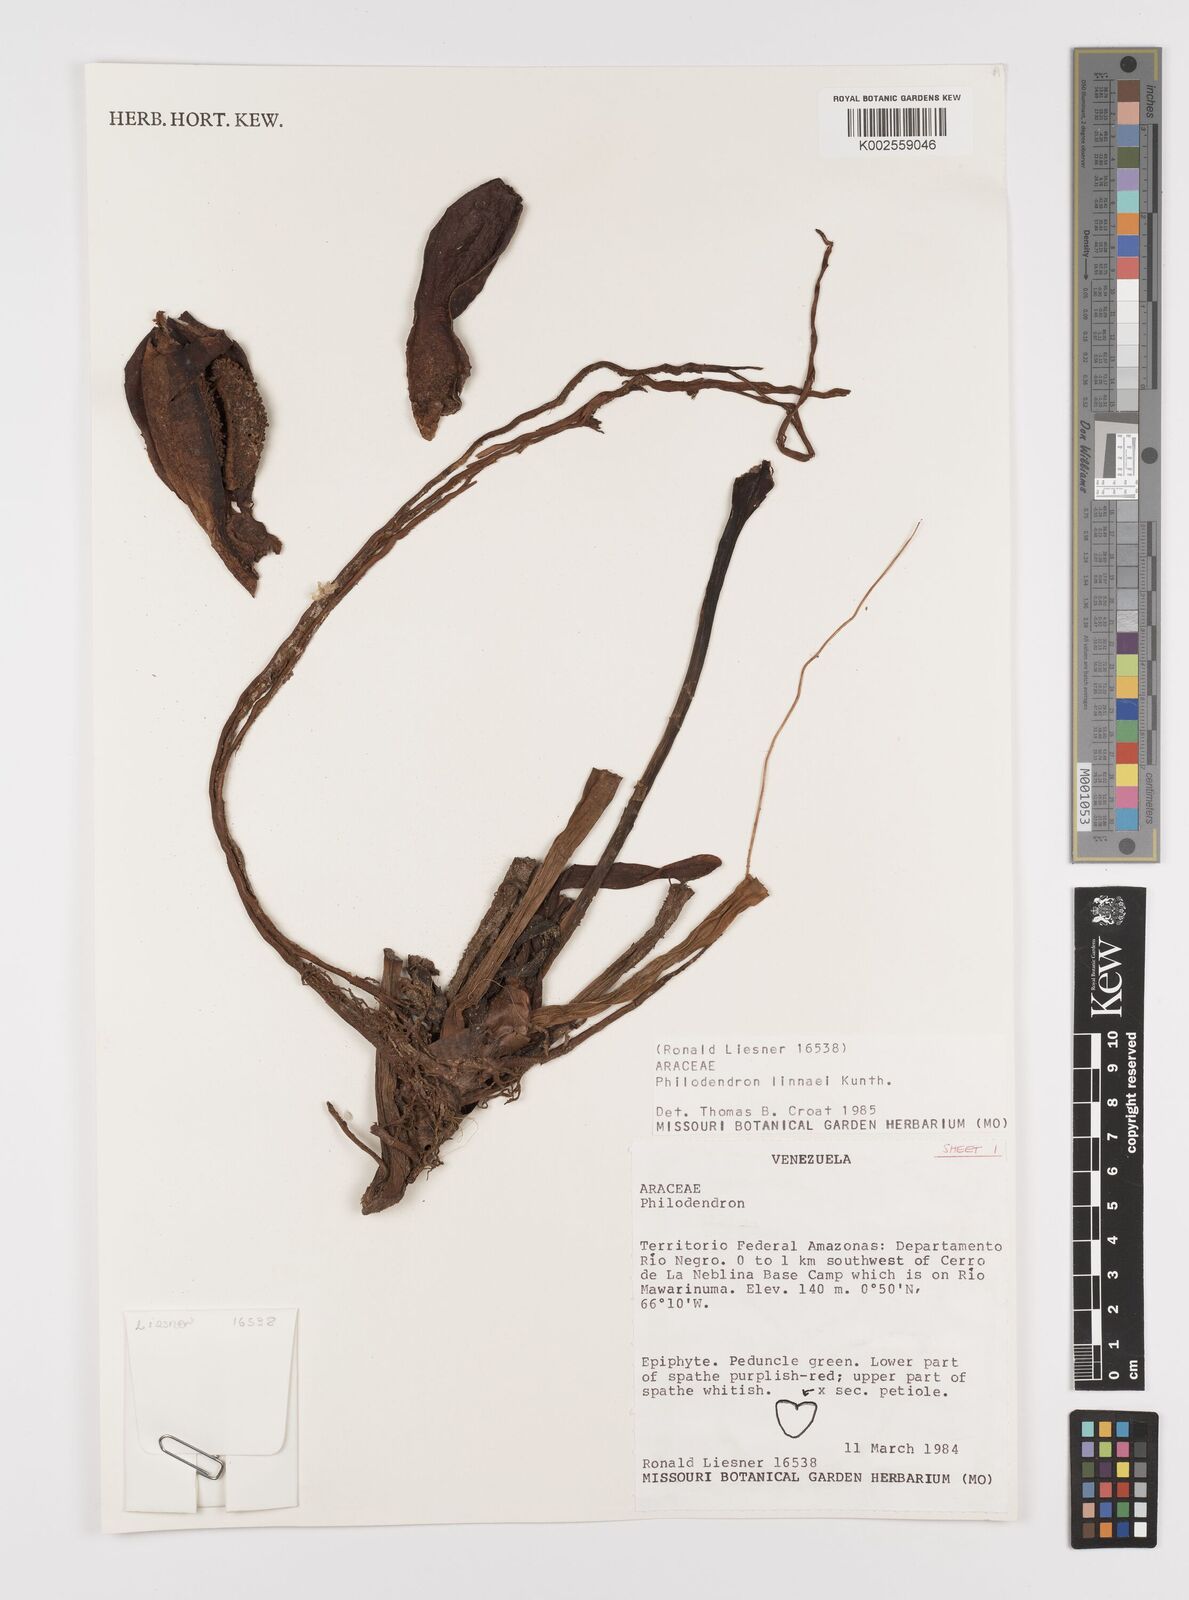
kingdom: Plantae
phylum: Tracheophyta
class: Liliopsida
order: Alismatales
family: Araceae
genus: Philodendron
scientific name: Philodendron linnaei
